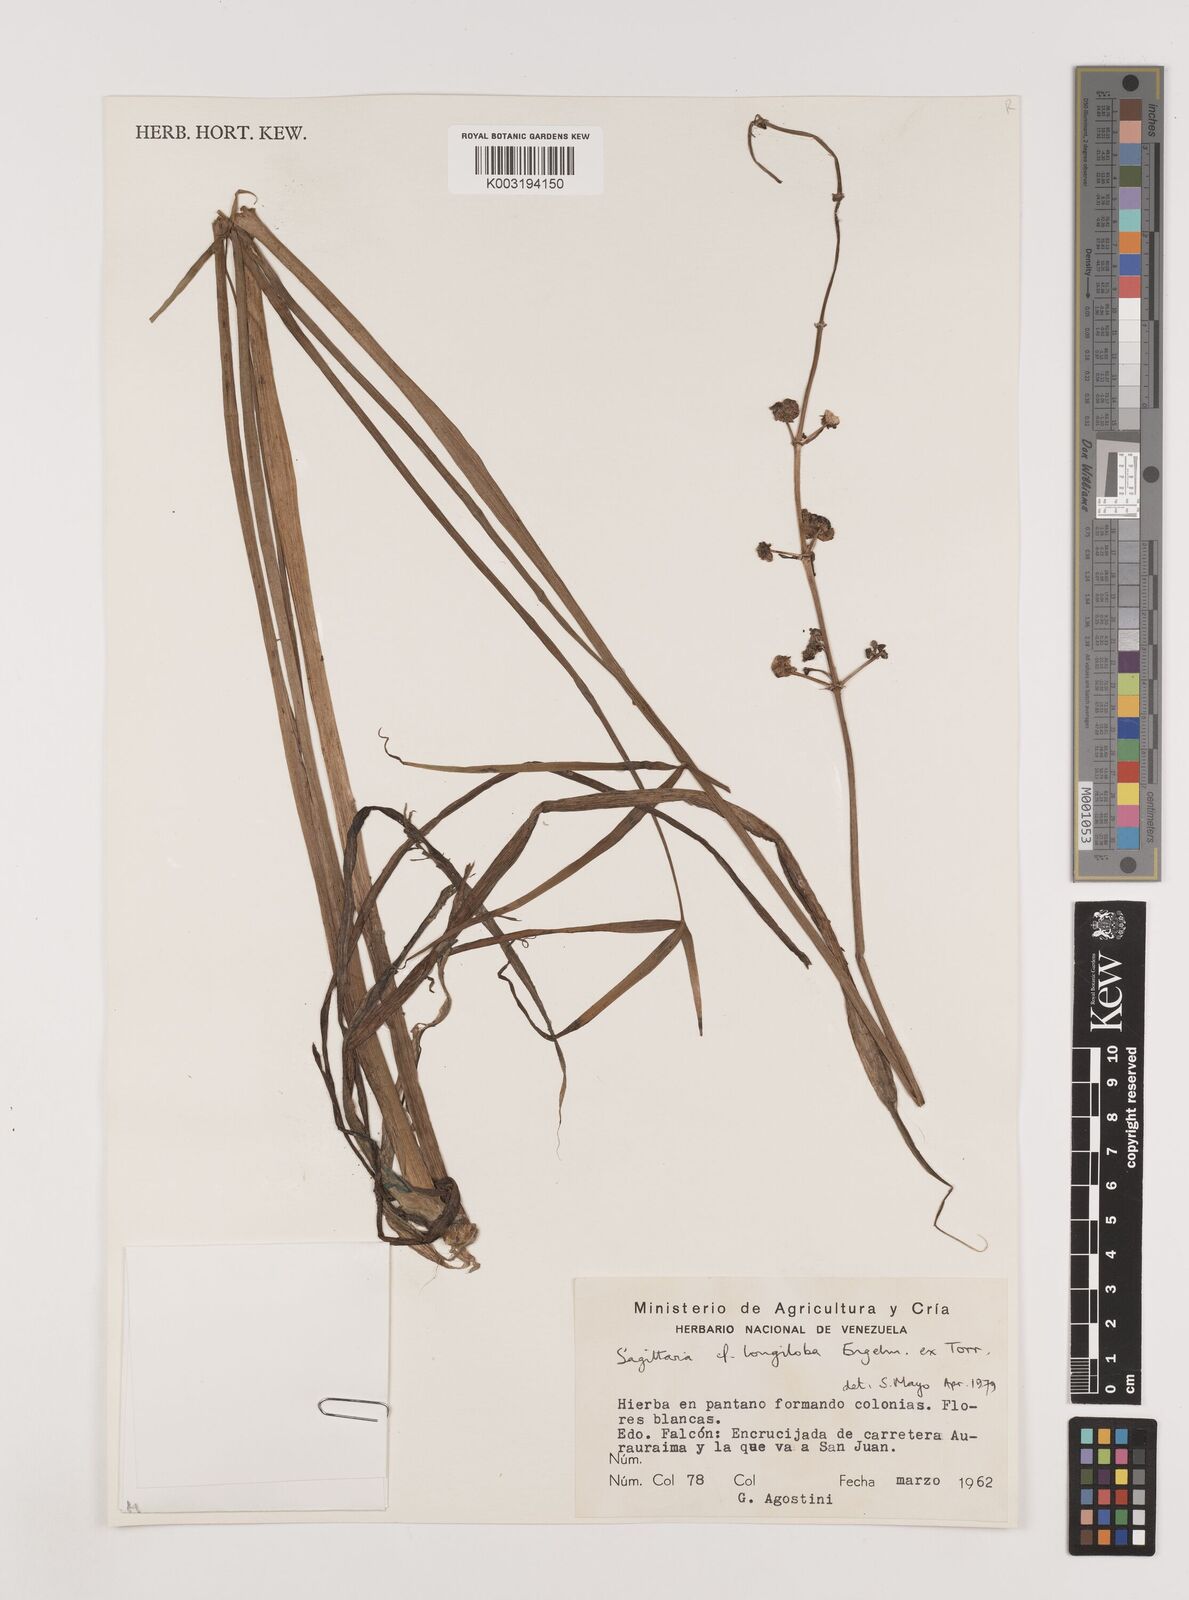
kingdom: Plantae
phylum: Tracheophyta
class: Liliopsida
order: Alismatales
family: Alismataceae
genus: Sagittaria
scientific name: Sagittaria longiloba
